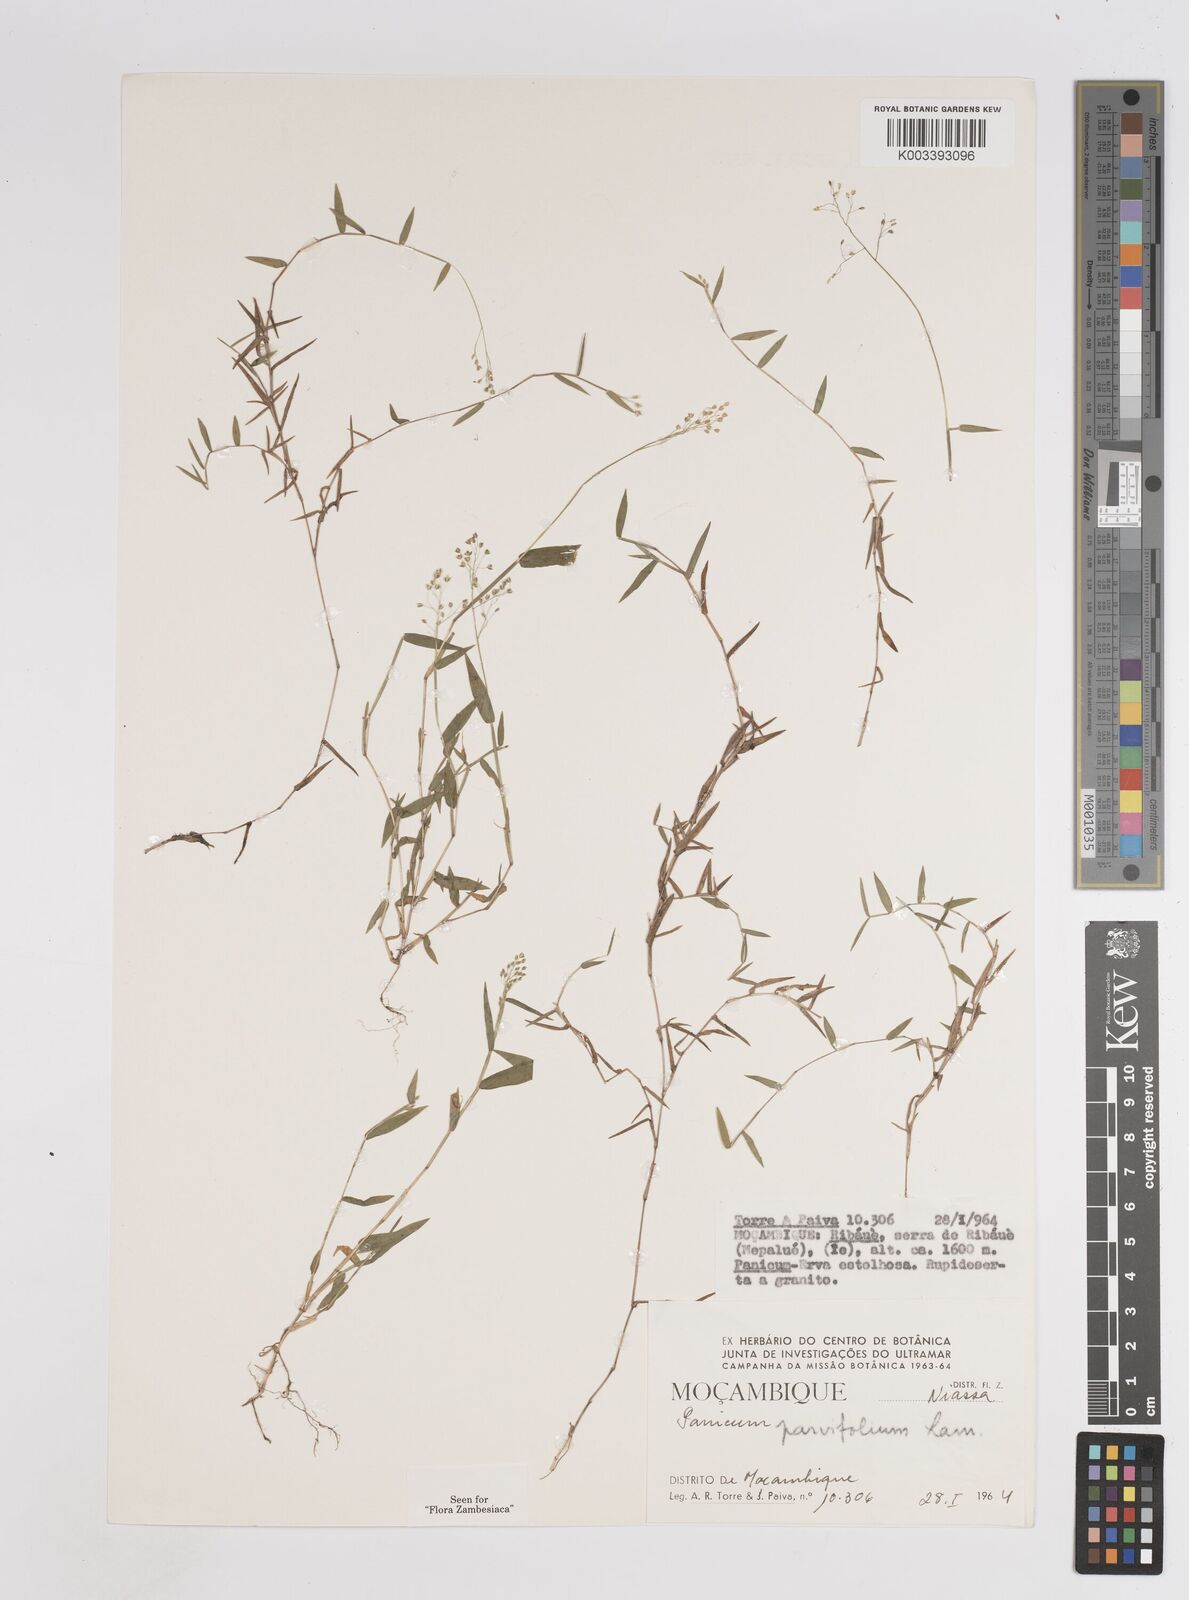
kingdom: Plantae
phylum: Tracheophyta
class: Liliopsida
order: Poales
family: Poaceae
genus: Trichanthecium
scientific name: Trichanthecium parvifolium
